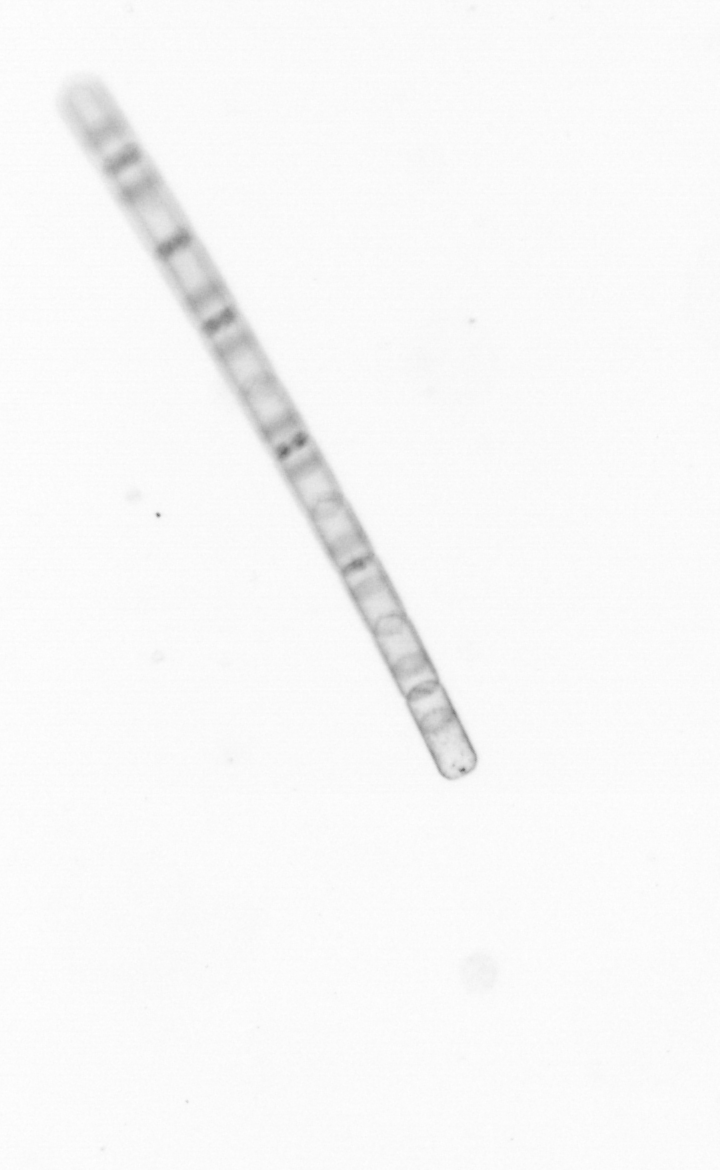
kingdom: Chromista
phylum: Ochrophyta
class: Bacillariophyceae
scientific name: Bacillariophyceae
